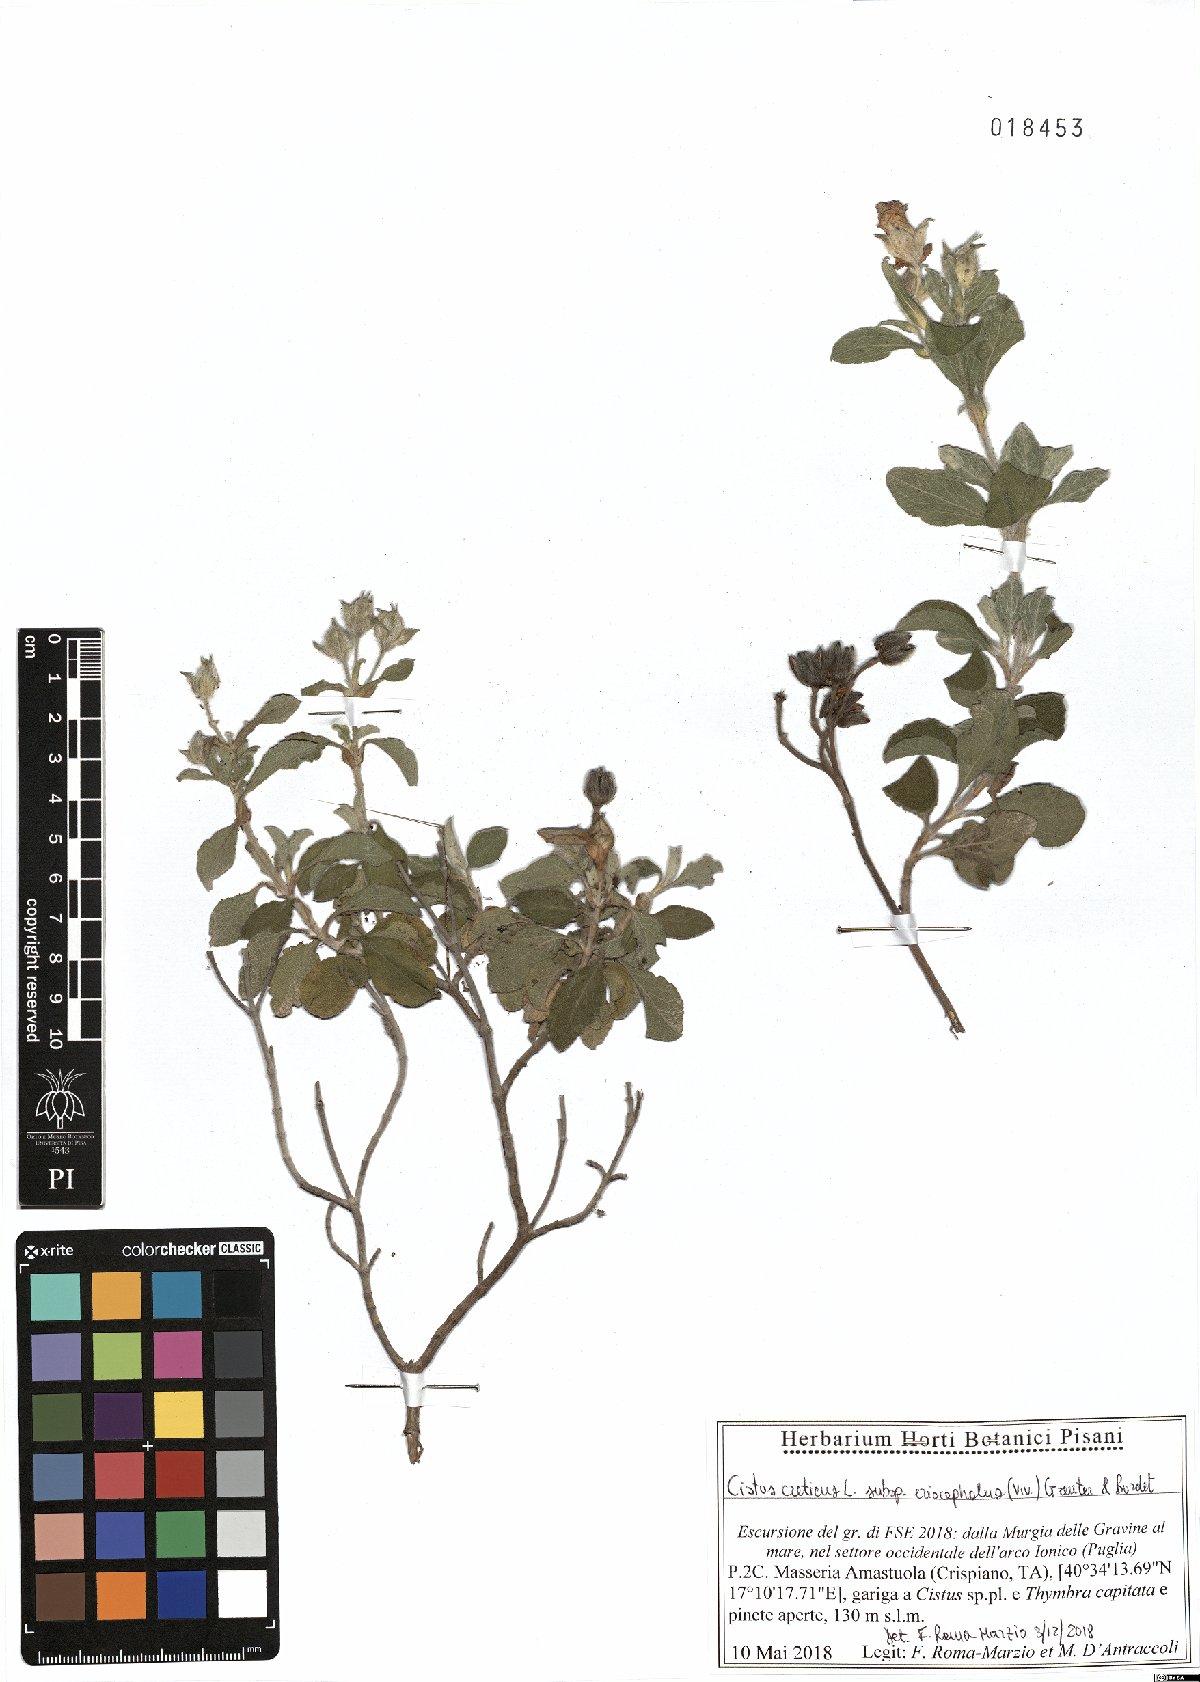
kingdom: Plantae
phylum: Tracheophyta
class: Magnoliopsida
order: Malvales
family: Cistaceae
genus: Cistus
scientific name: Cistus tauricus
